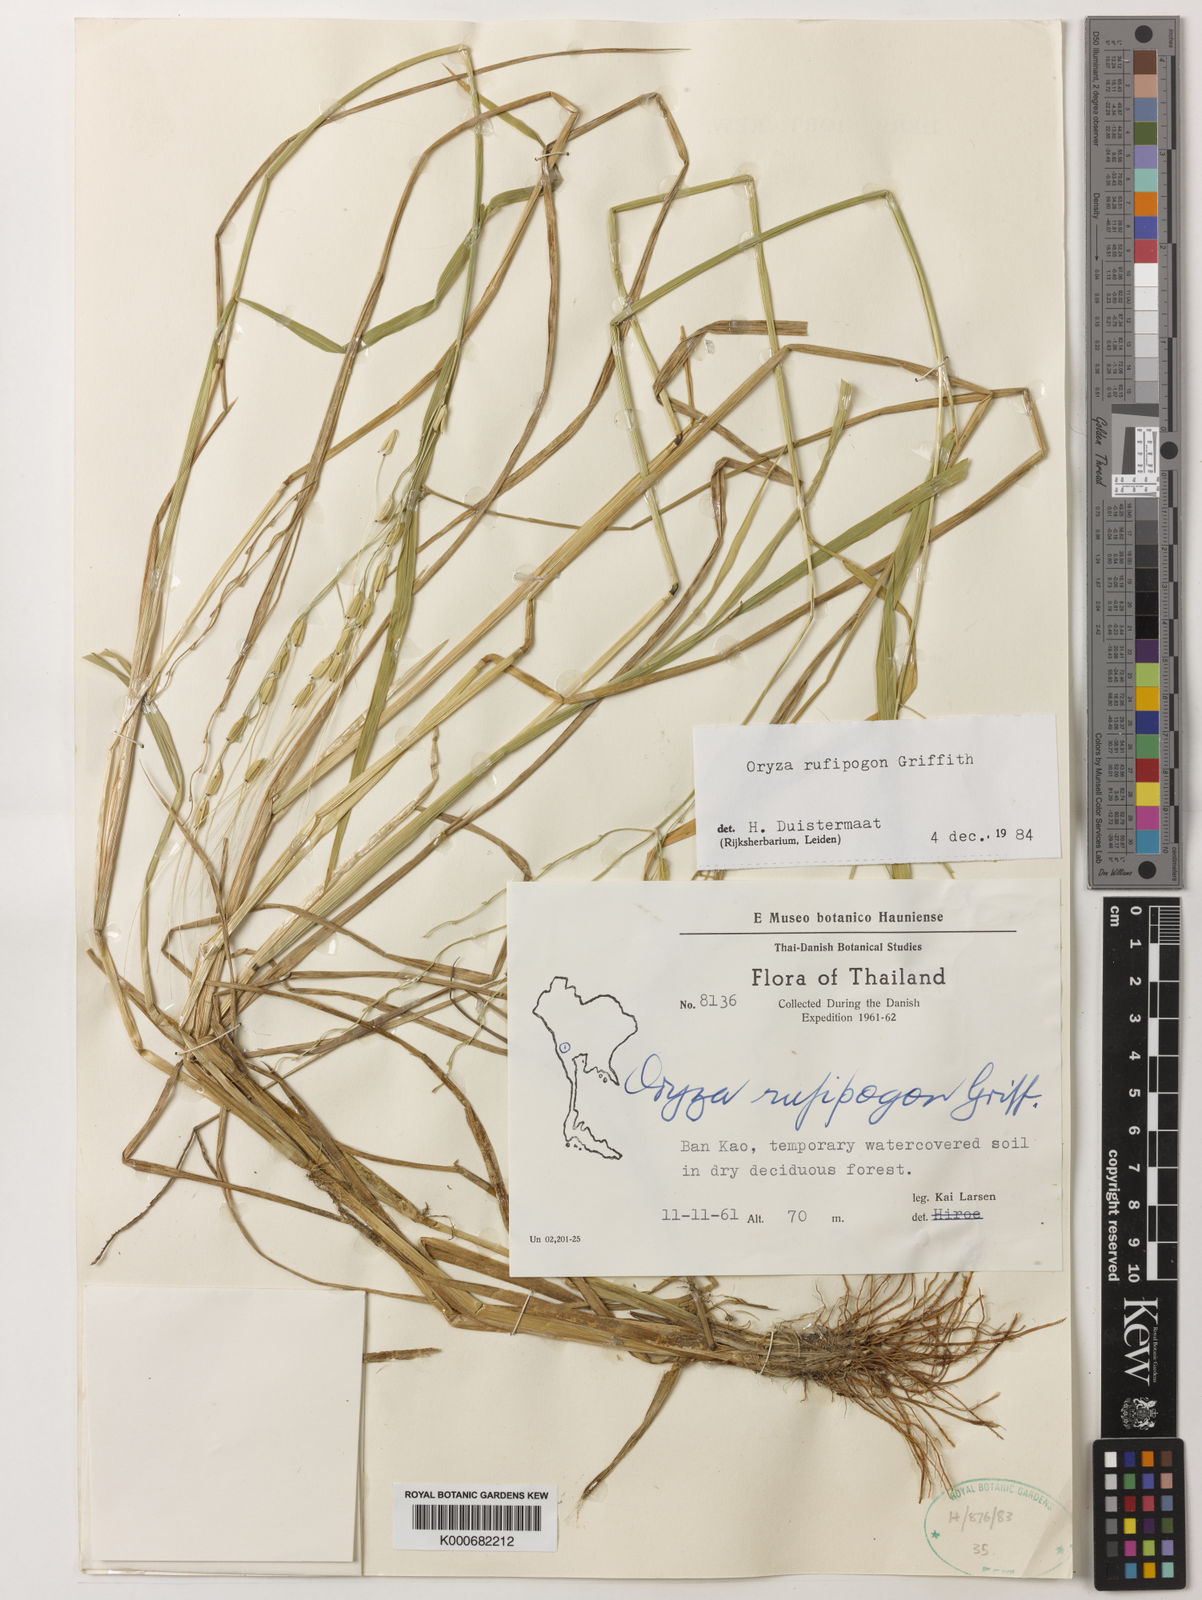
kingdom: Plantae
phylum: Tracheophyta
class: Liliopsida
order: Poales
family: Poaceae
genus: Oryza
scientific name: Oryza rufipogon
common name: Red rice
